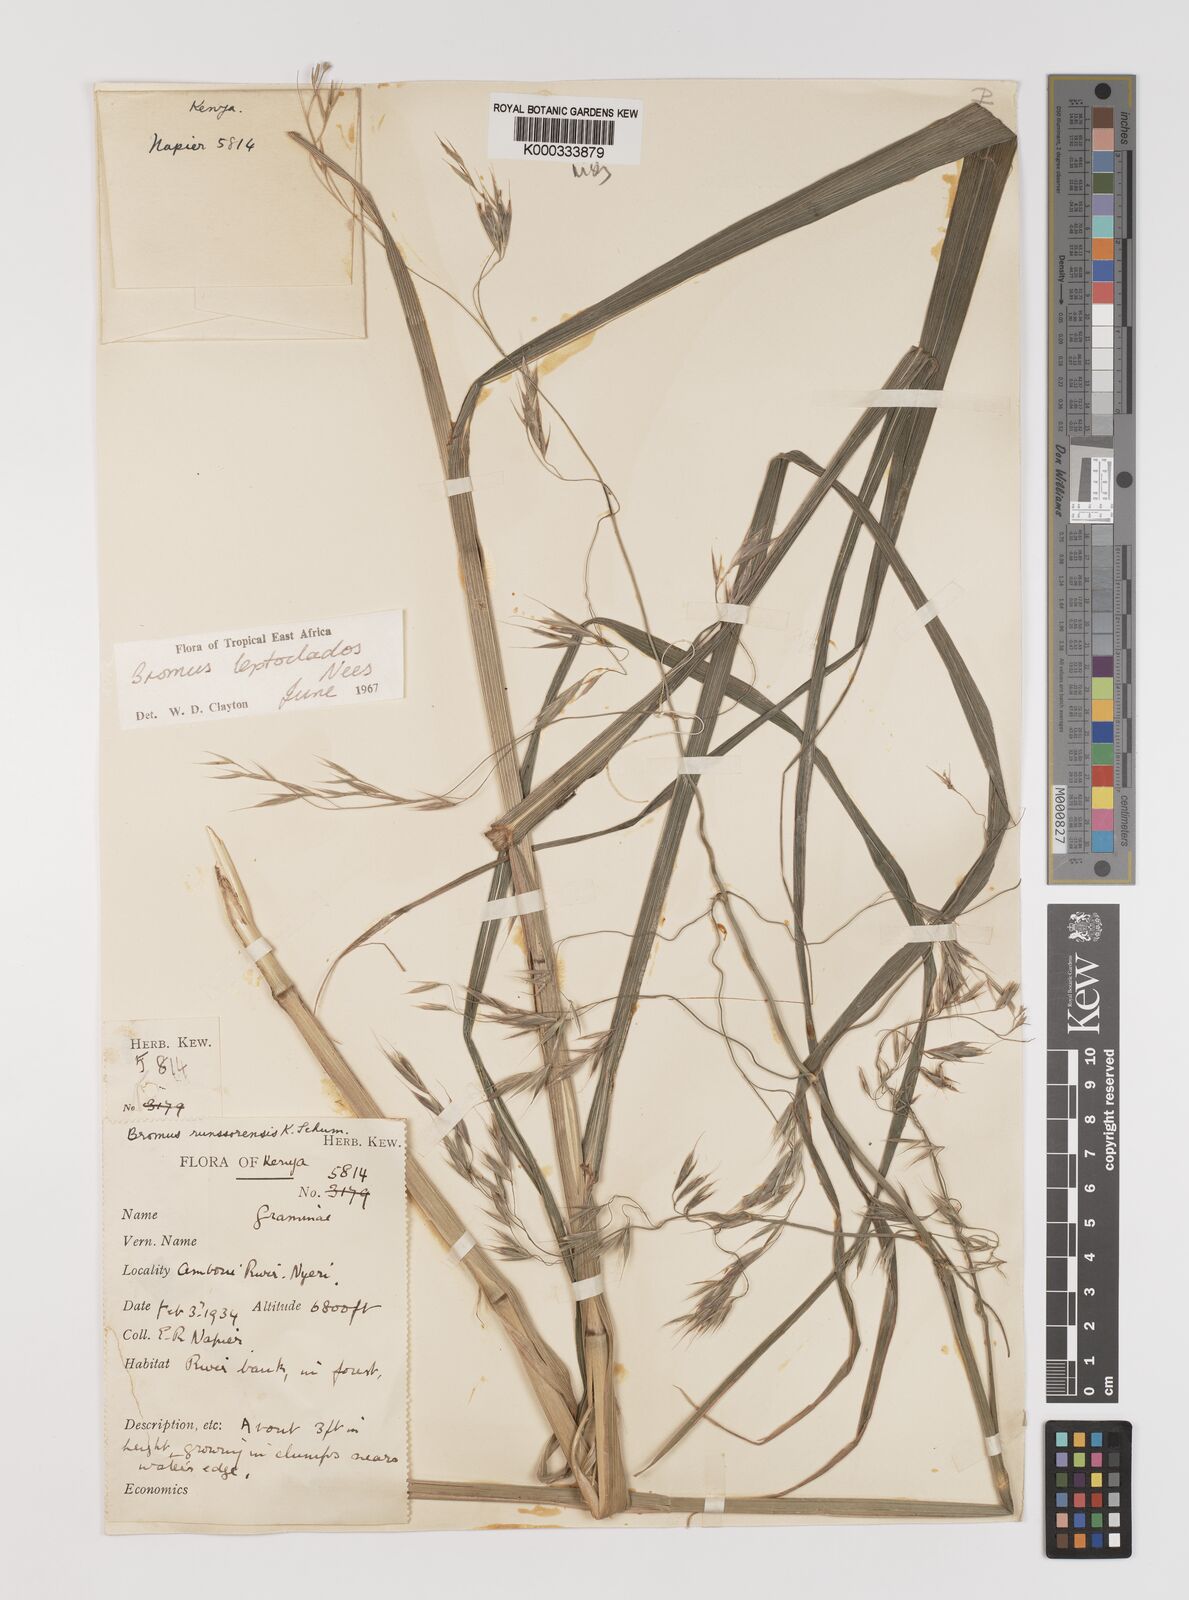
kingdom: Plantae
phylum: Tracheophyta
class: Liliopsida
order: Poales
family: Poaceae
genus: Bromus
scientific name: Bromus leptoclados
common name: Mountain bromegrass
